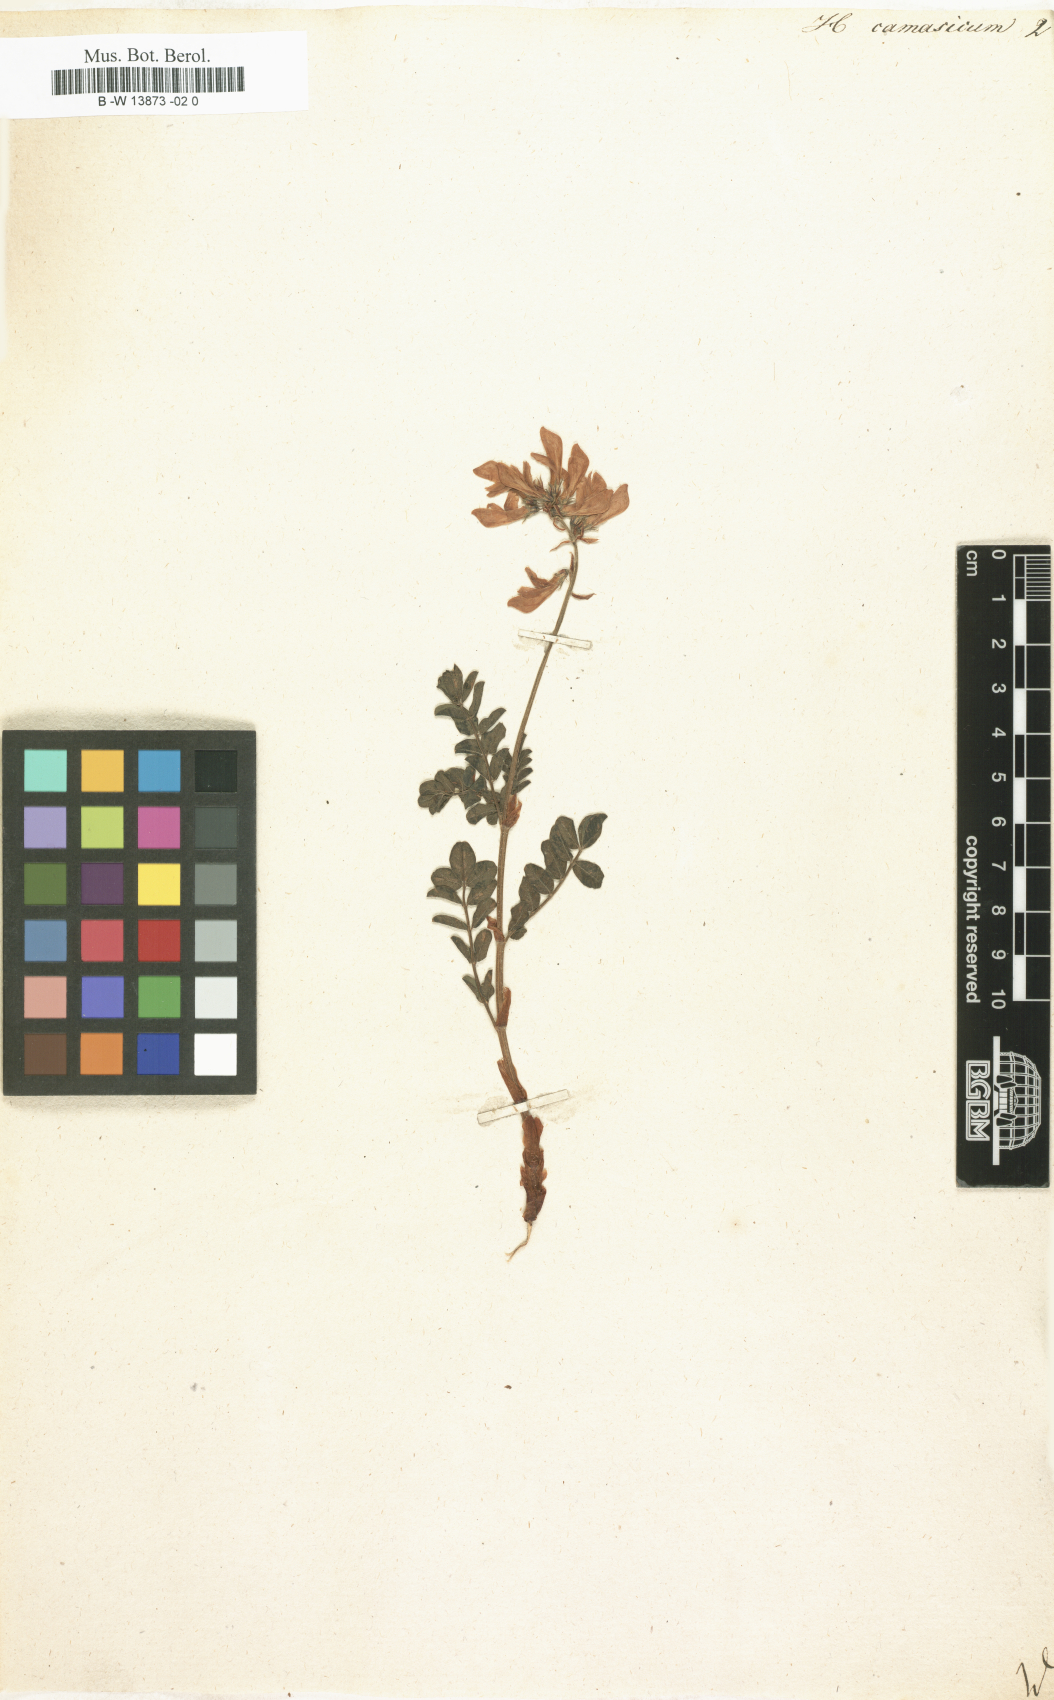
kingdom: Plantae
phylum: Tracheophyta
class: Magnoliopsida
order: Fabales
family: Fabaceae
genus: Hedysarum
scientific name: Hedysarum caucasicum
